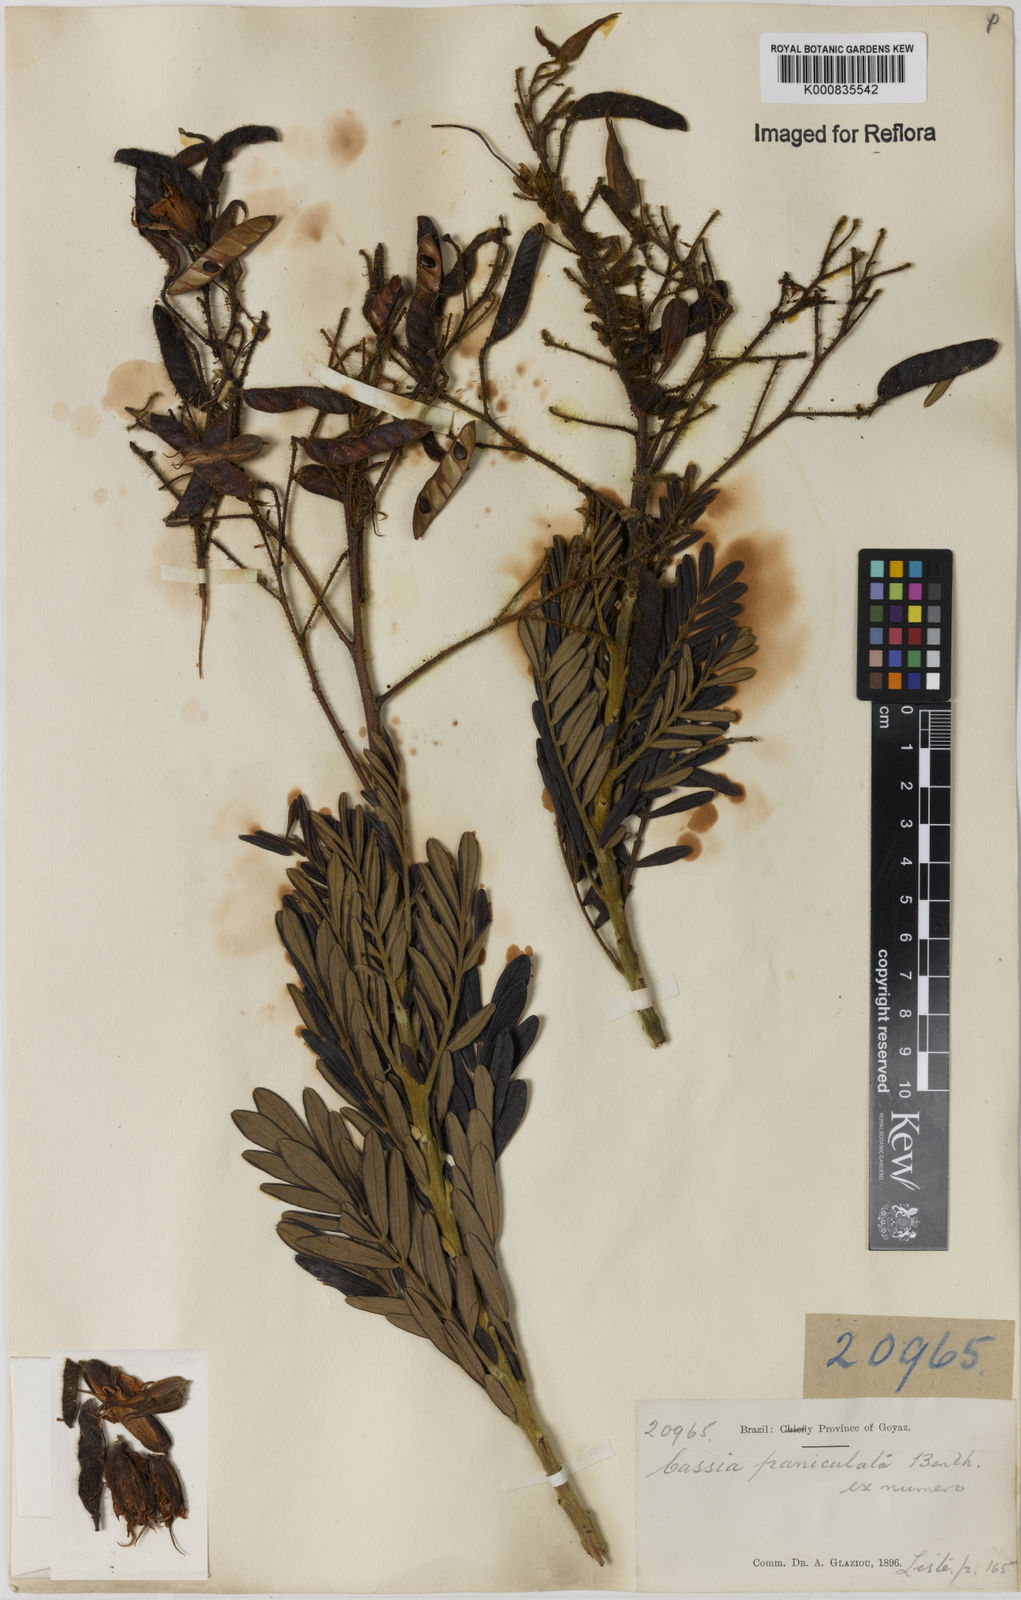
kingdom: Plantae
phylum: Tracheophyta
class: Magnoliopsida
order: Fabales
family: Fabaceae
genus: Chamaecrista
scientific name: Chamaecrista paniculata
